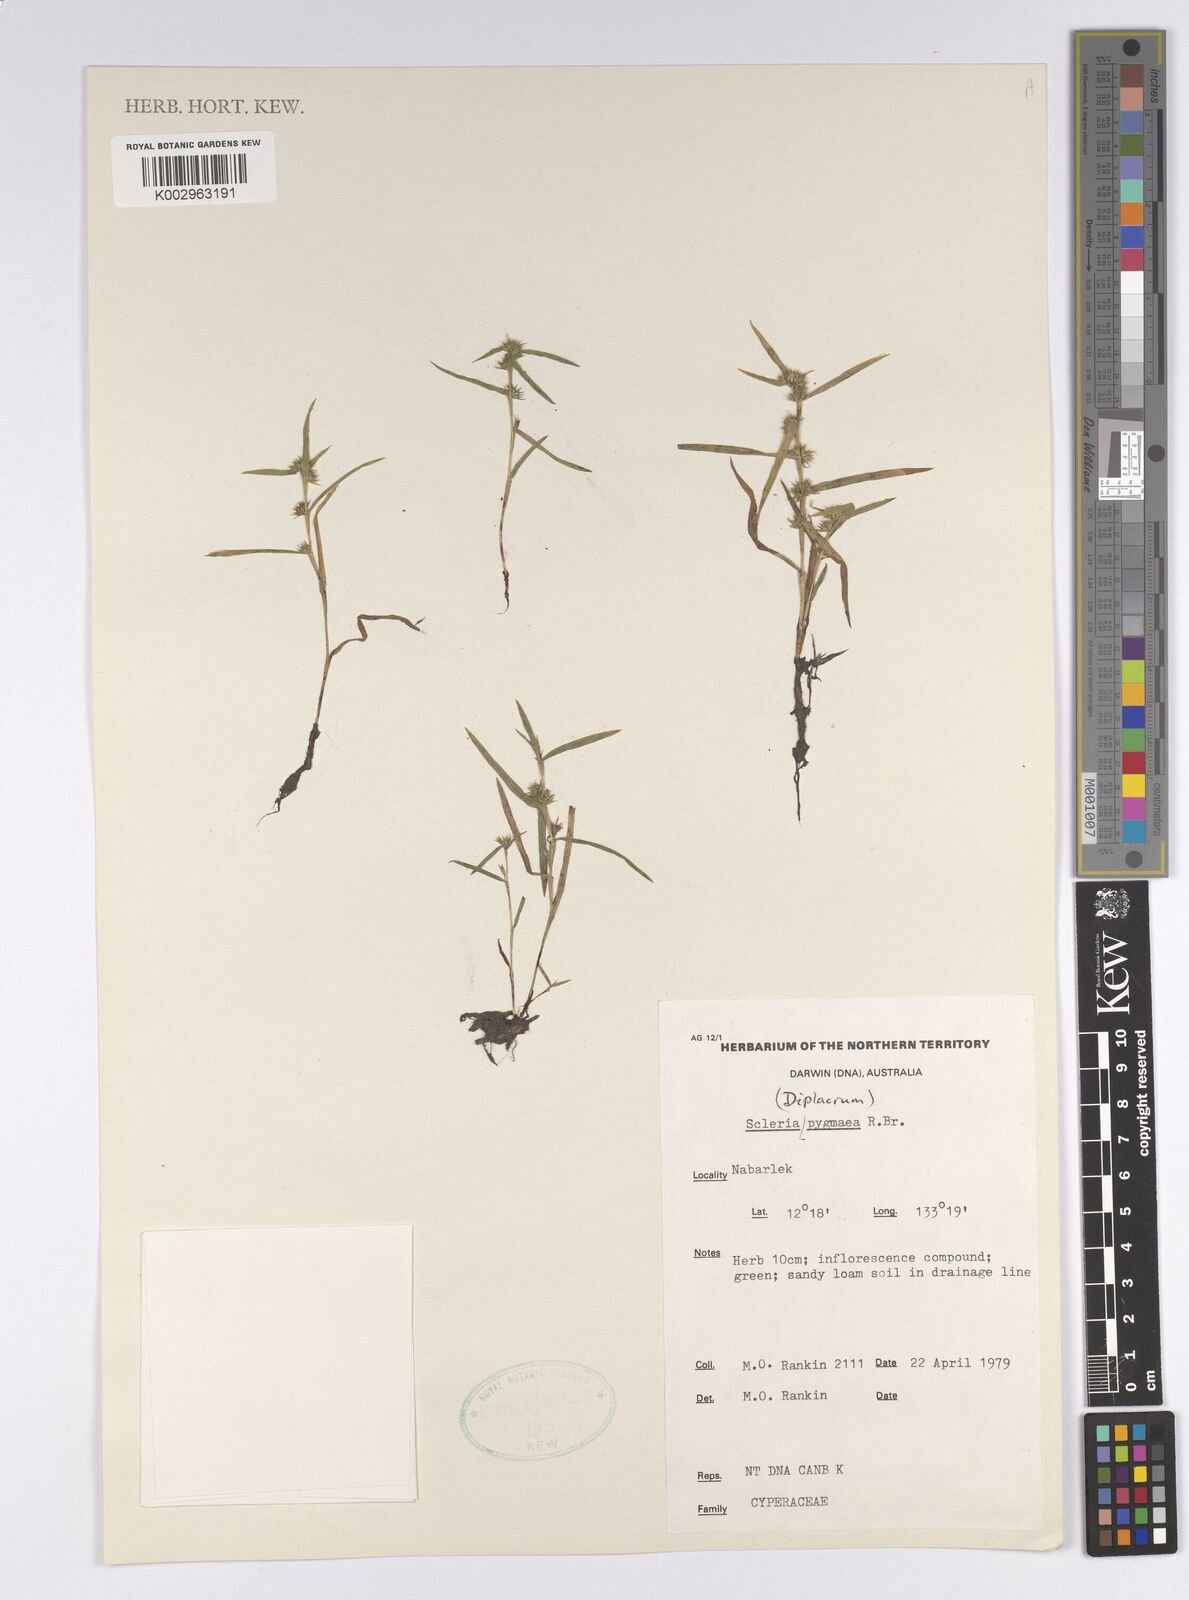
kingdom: Plantae
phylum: Tracheophyta
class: Liliopsida
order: Poales
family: Cyperaceae
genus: Diplacrum
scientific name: Diplacrum pygmaeum
